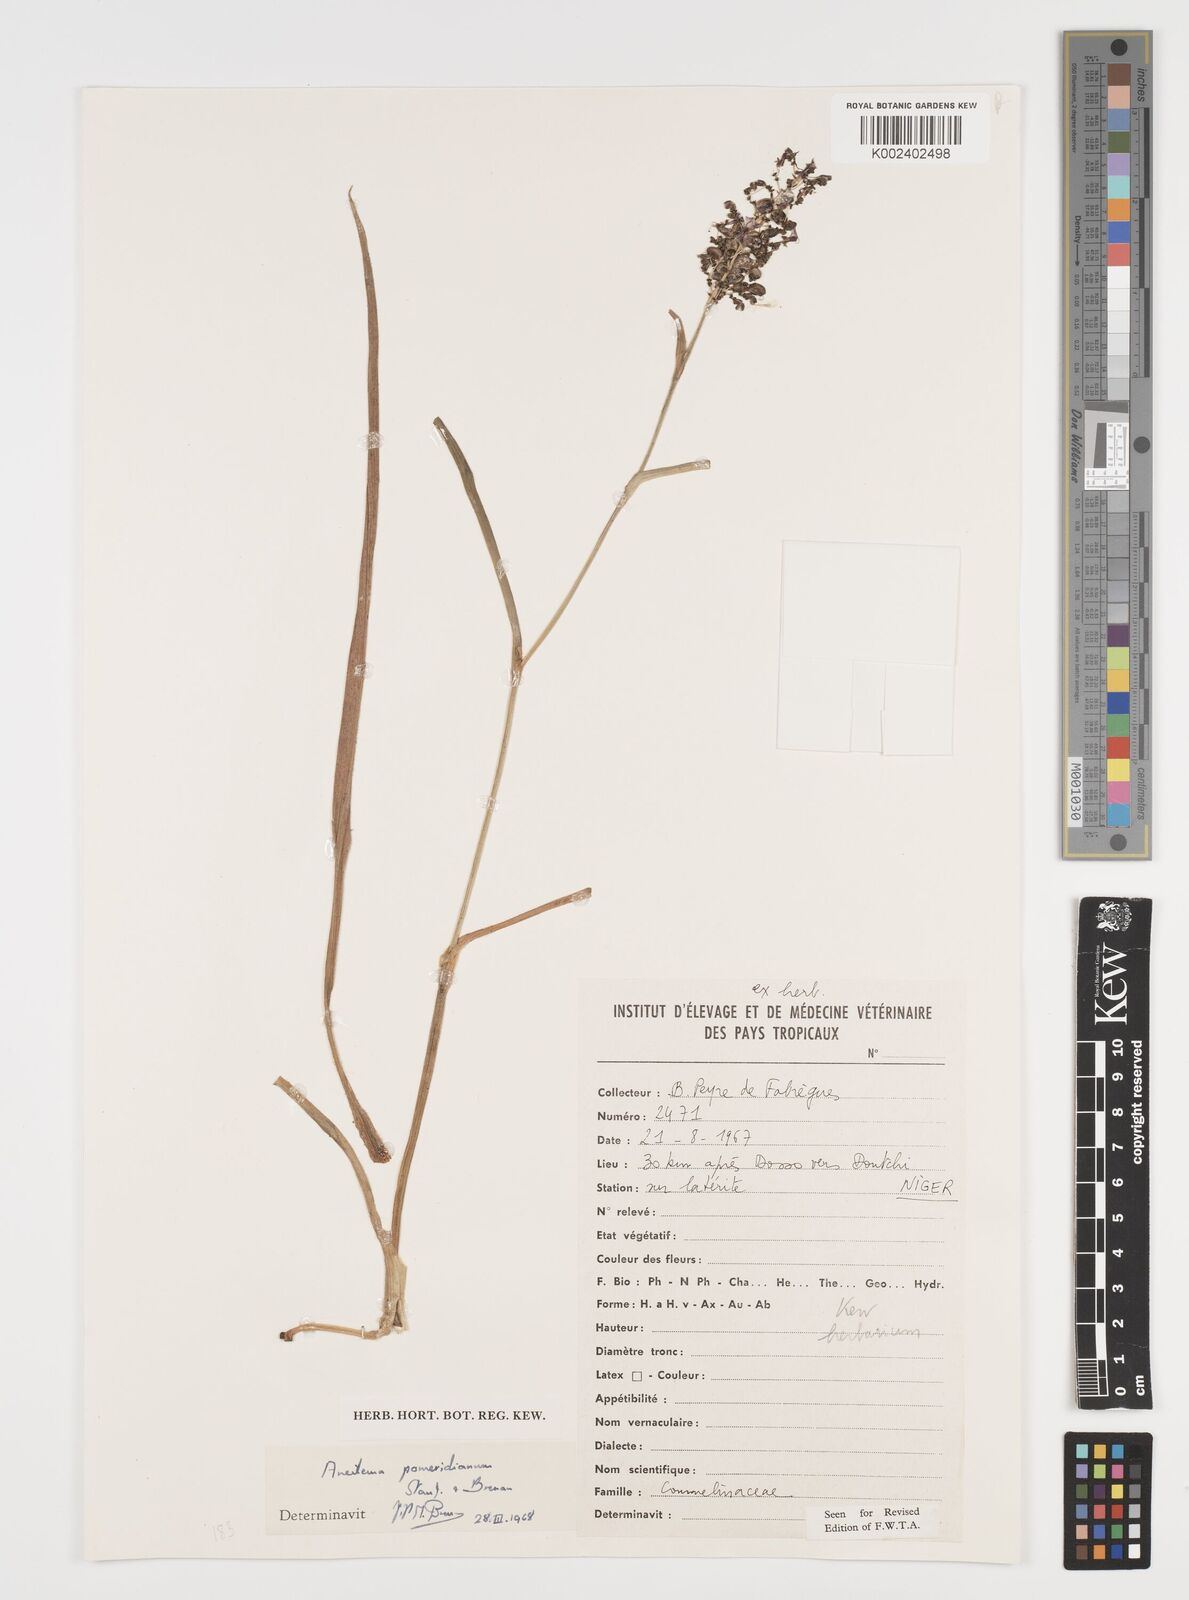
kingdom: Plantae
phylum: Tracheophyta
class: Liliopsida
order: Commelinales
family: Commelinaceae
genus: Aneilema
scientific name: Aneilema pomeridianum
